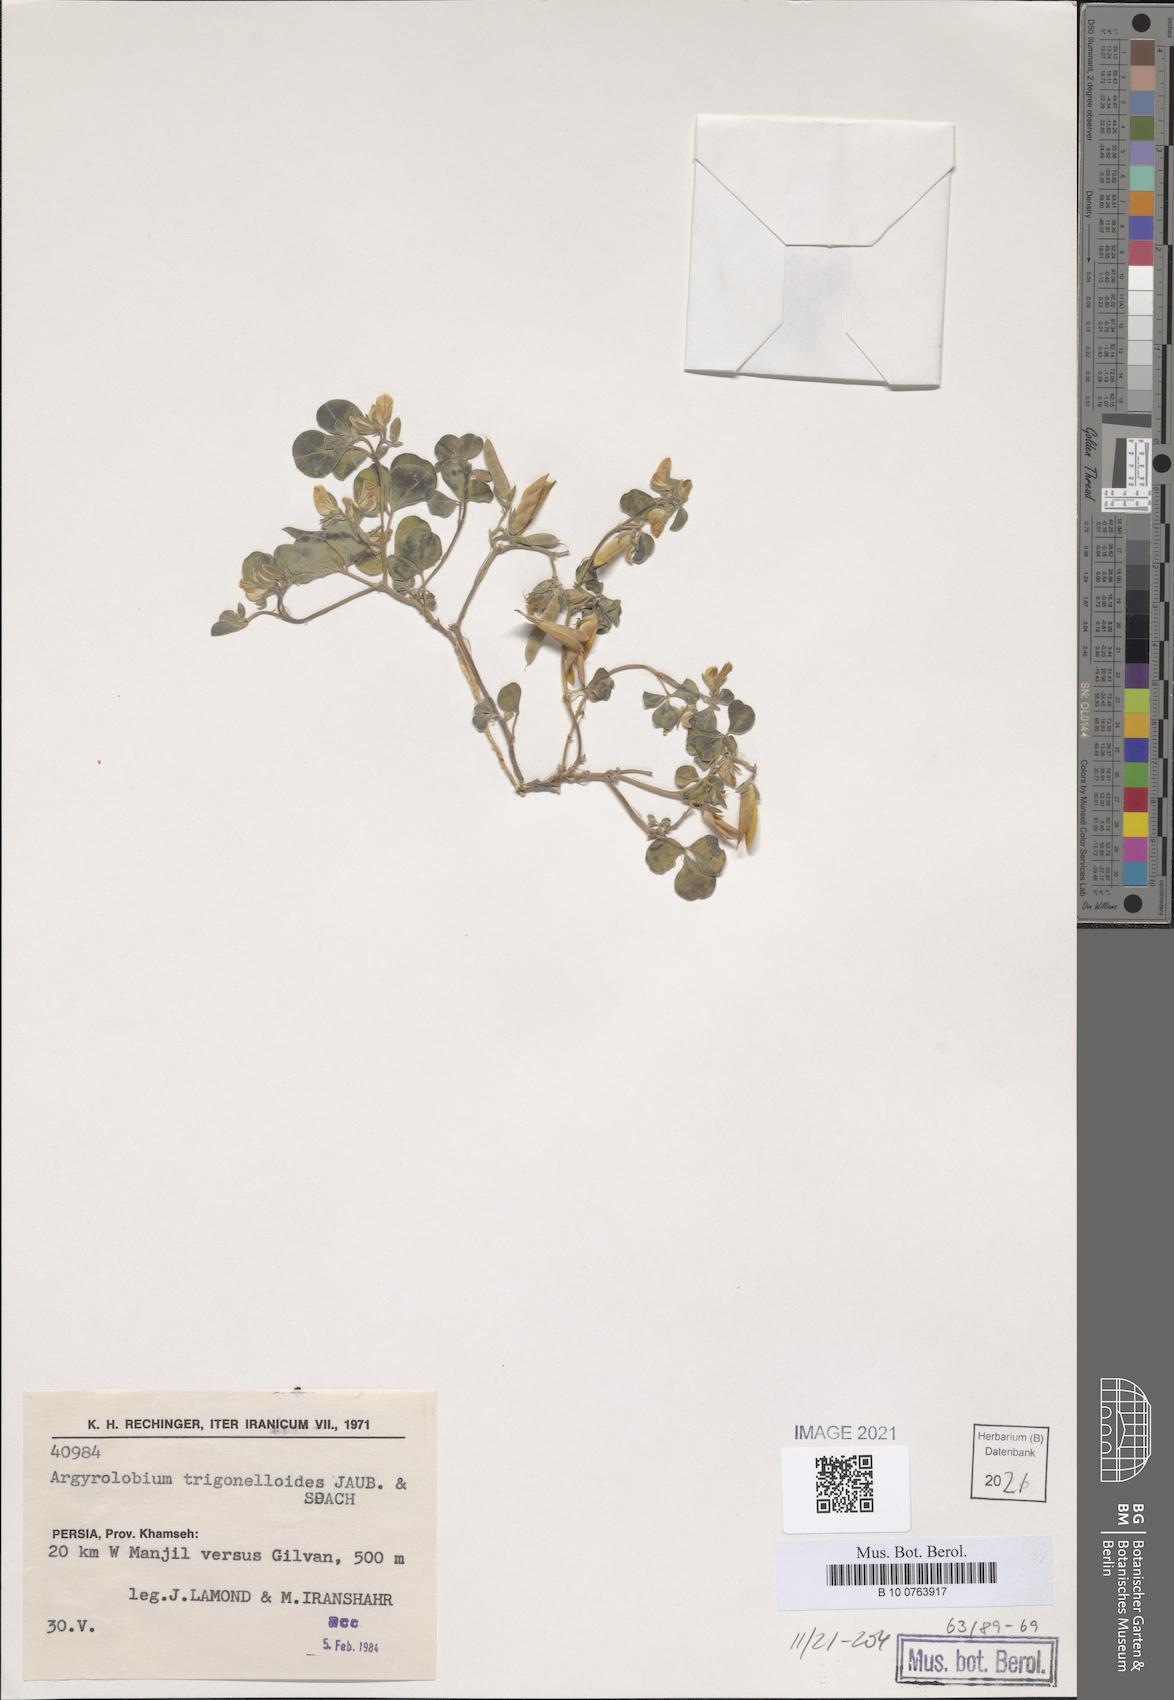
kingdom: Plantae
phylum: Tracheophyta
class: Magnoliopsida
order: Fabales
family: Fabaceae
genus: Argyrolobium
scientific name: Argyrolobium roseum
